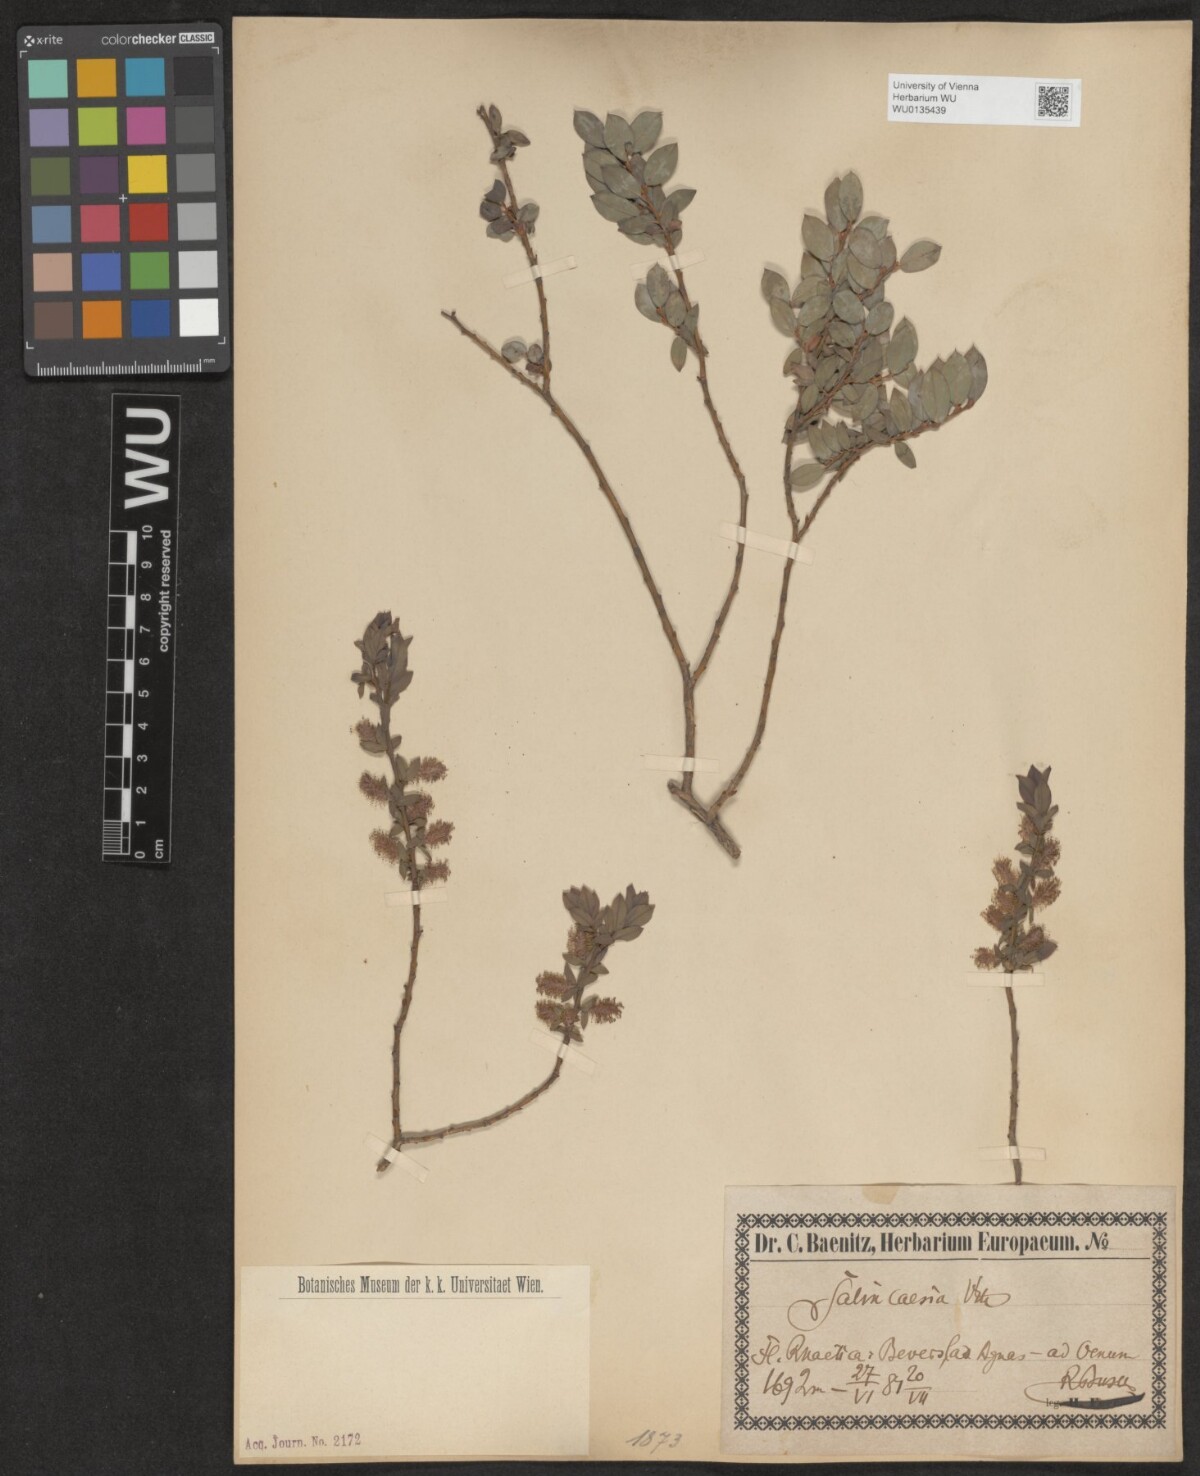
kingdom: Plantae
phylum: Tracheophyta
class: Magnoliopsida
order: Malpighiales
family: Salicaceae
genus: Salix
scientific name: Salix caesia
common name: Blue willow
